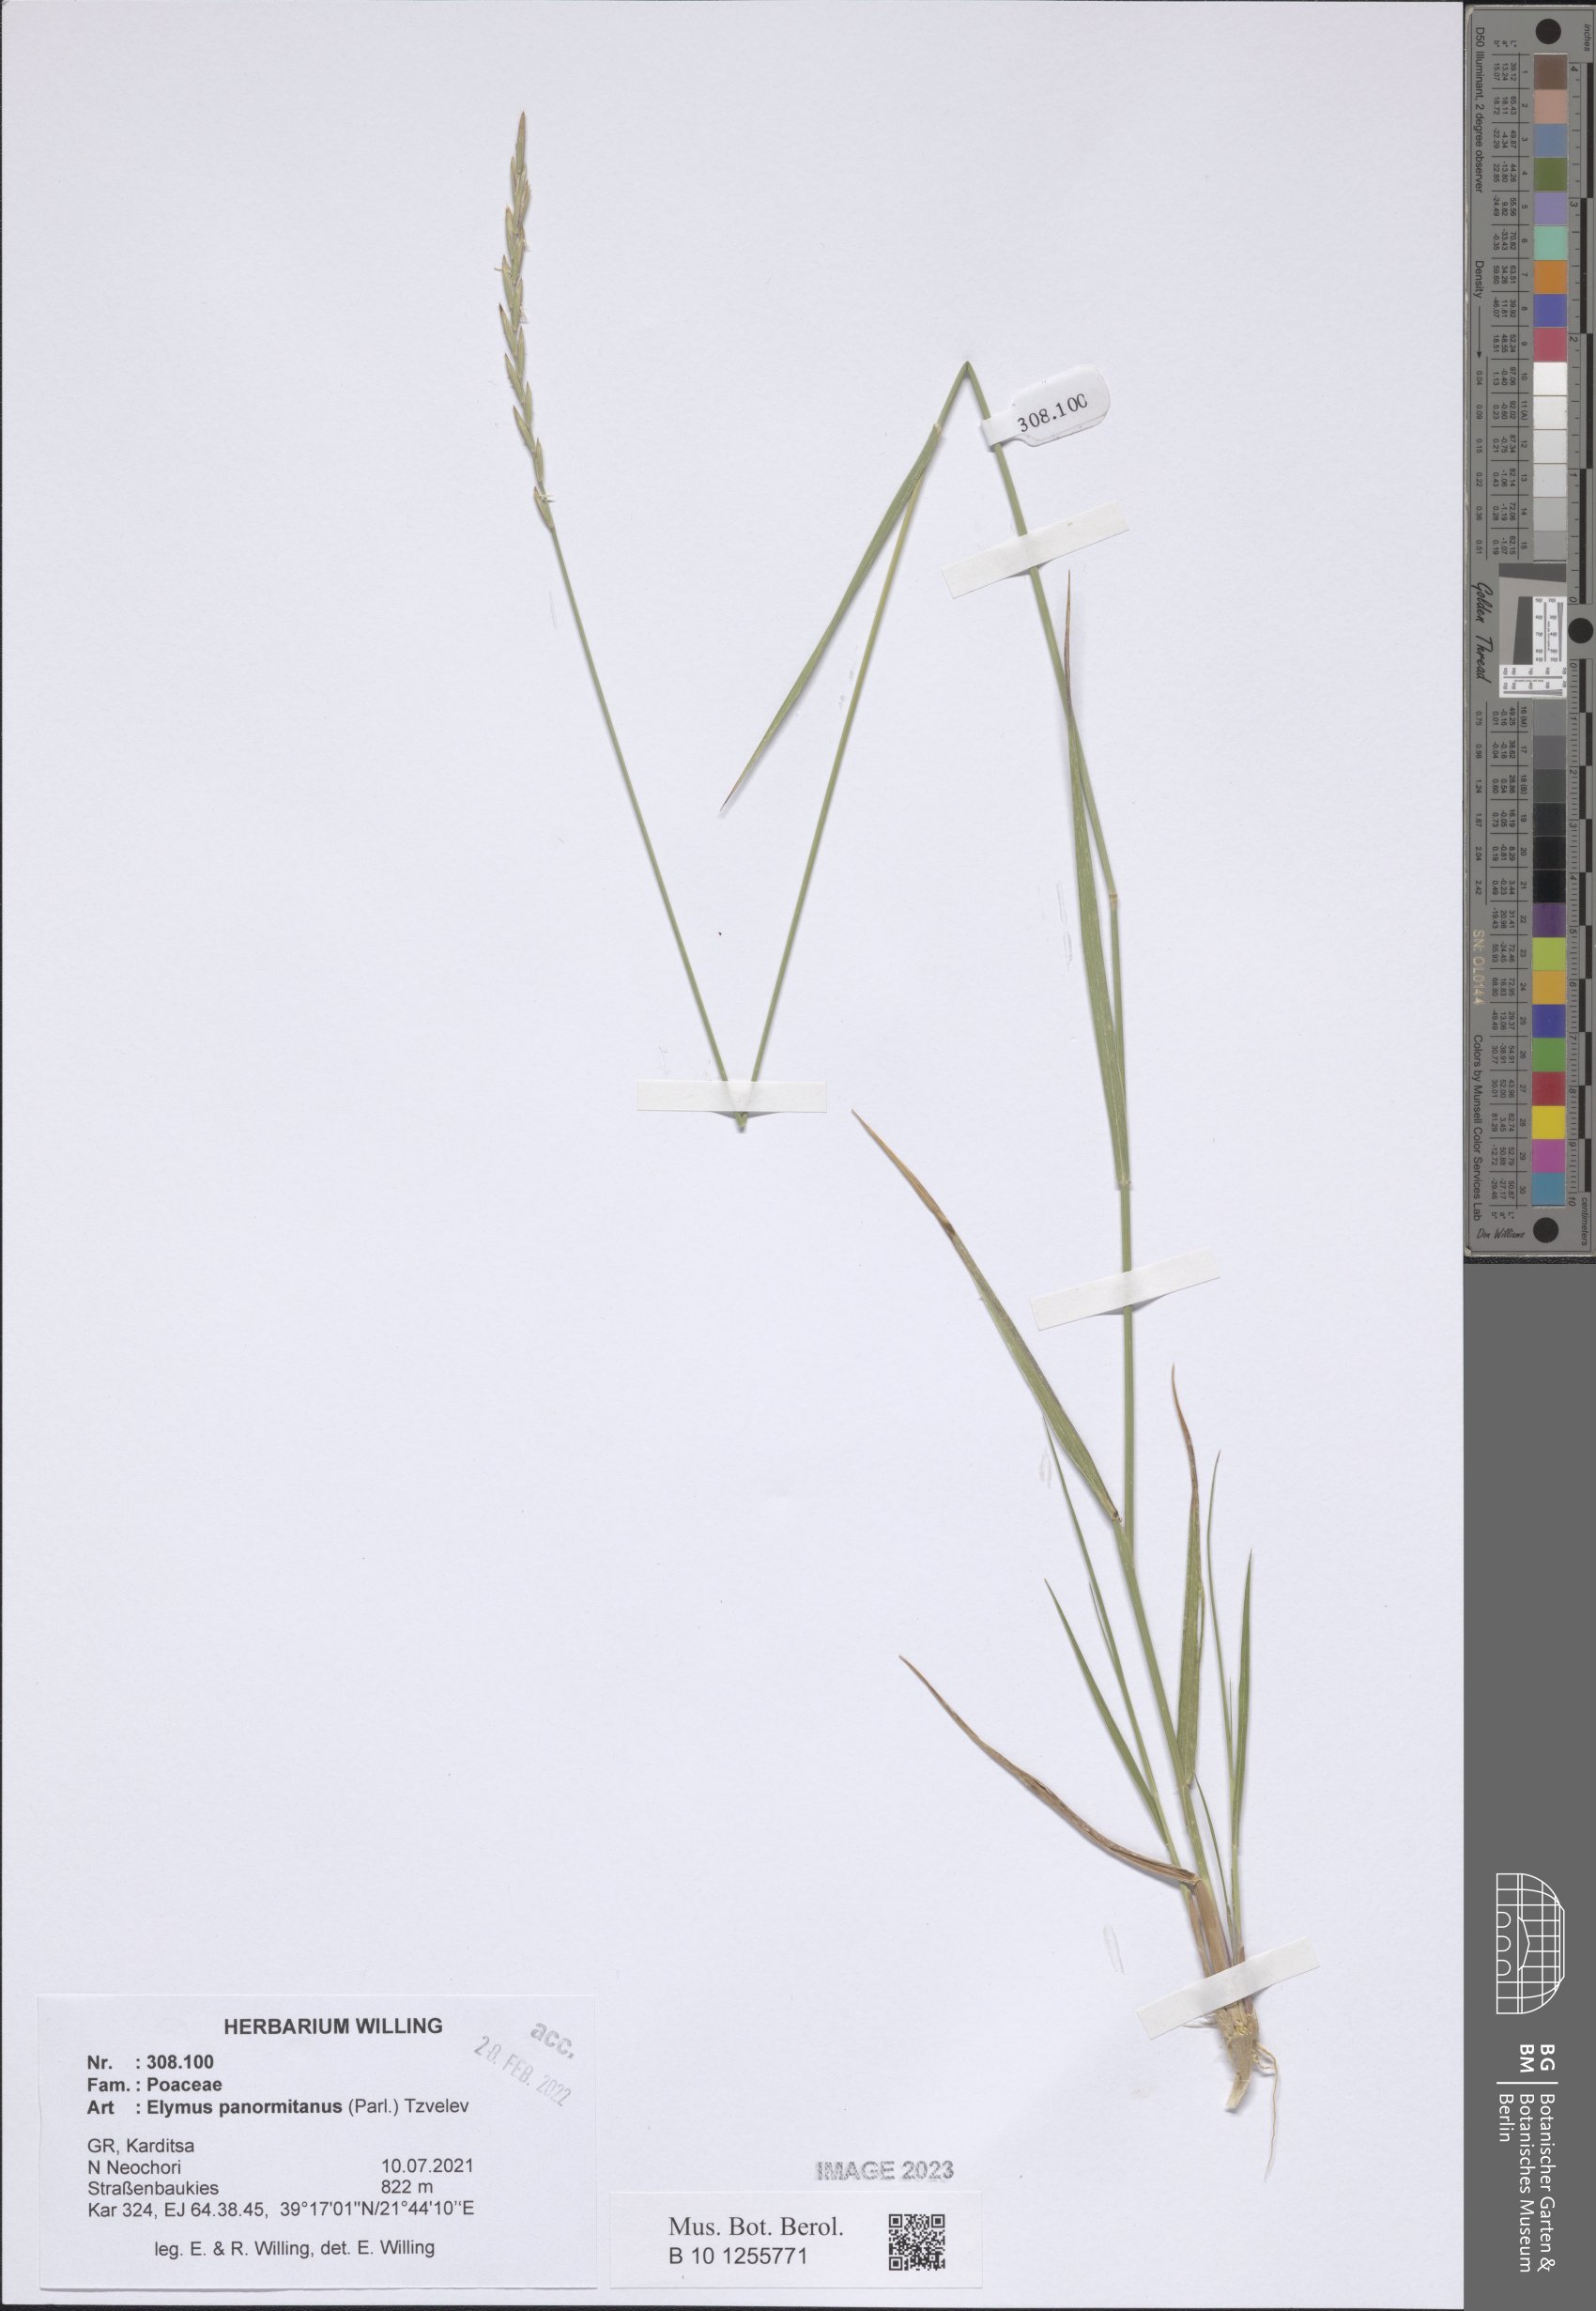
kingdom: Plantae
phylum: Tracheophyta
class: Liliopsida
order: Poales
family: Poaceae
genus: Elymus
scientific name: Elymus panormitanus
